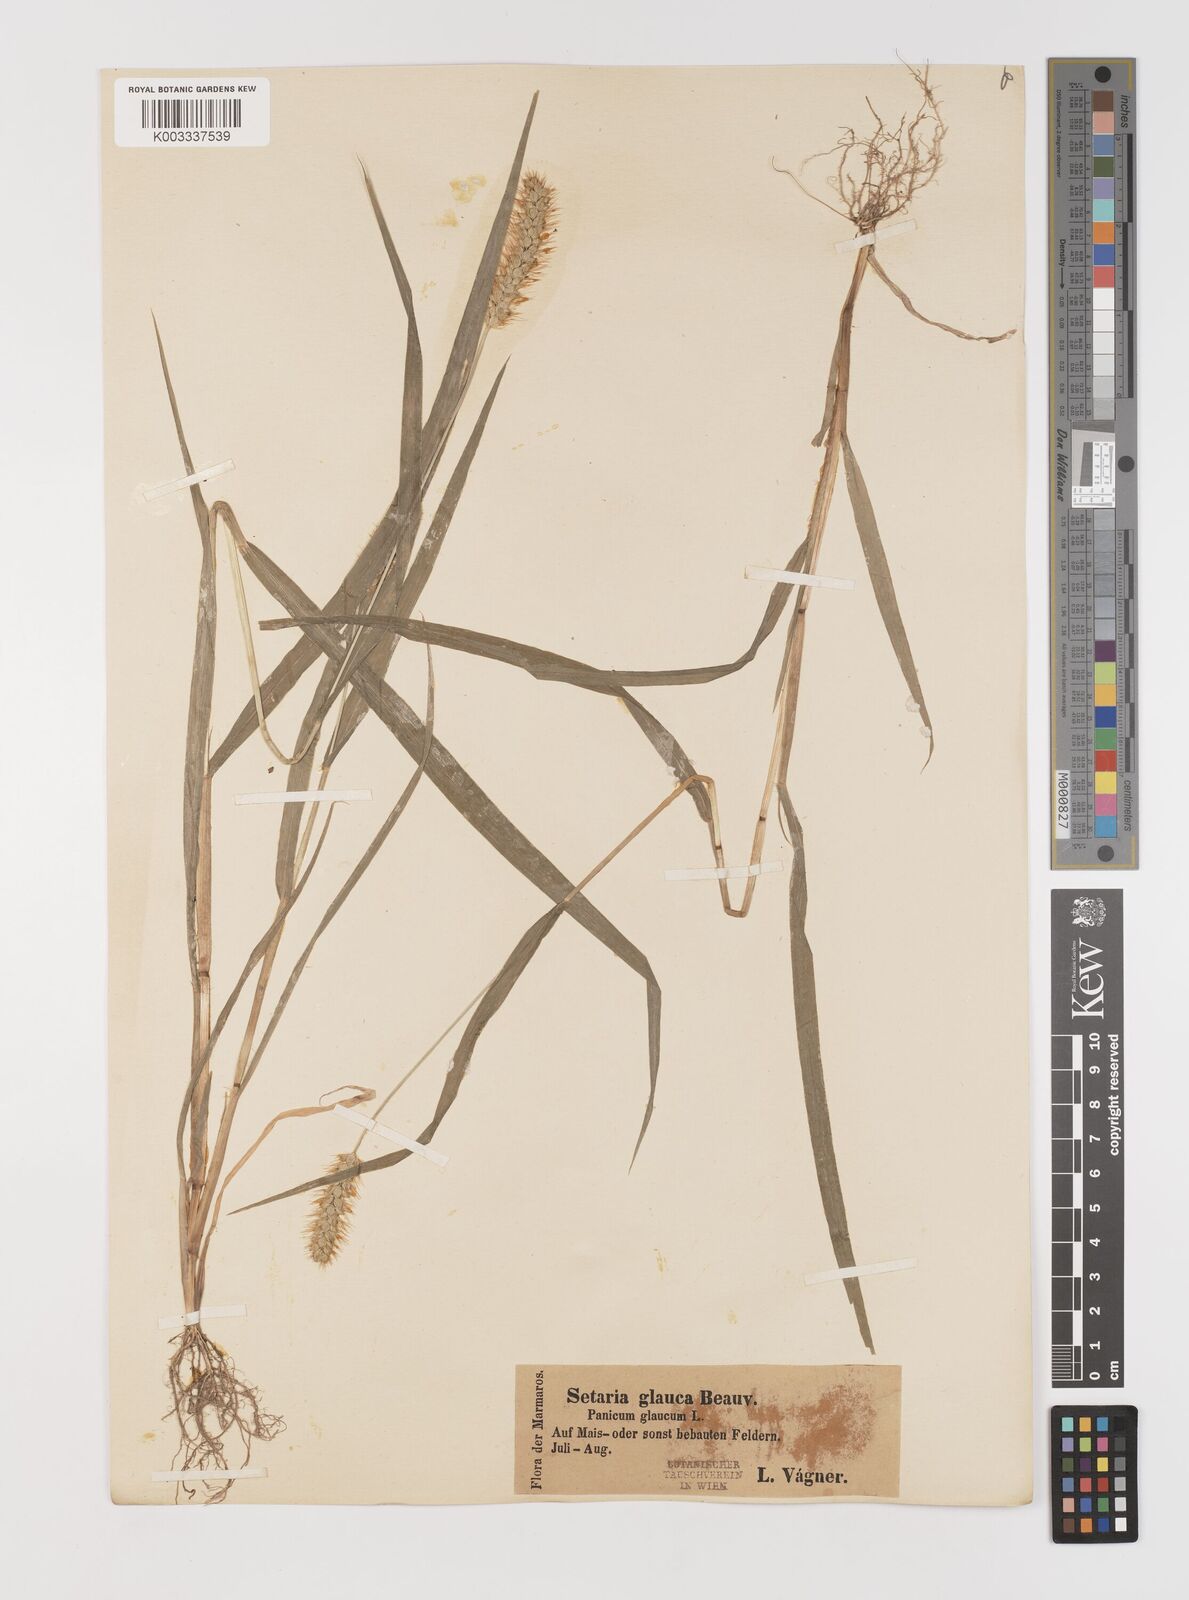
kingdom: Plantae
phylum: Tracheophyta
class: Liliopsida
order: Poales
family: Poaceae
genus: Setaria
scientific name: Setaria pumila
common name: Yellow bristle-grass
